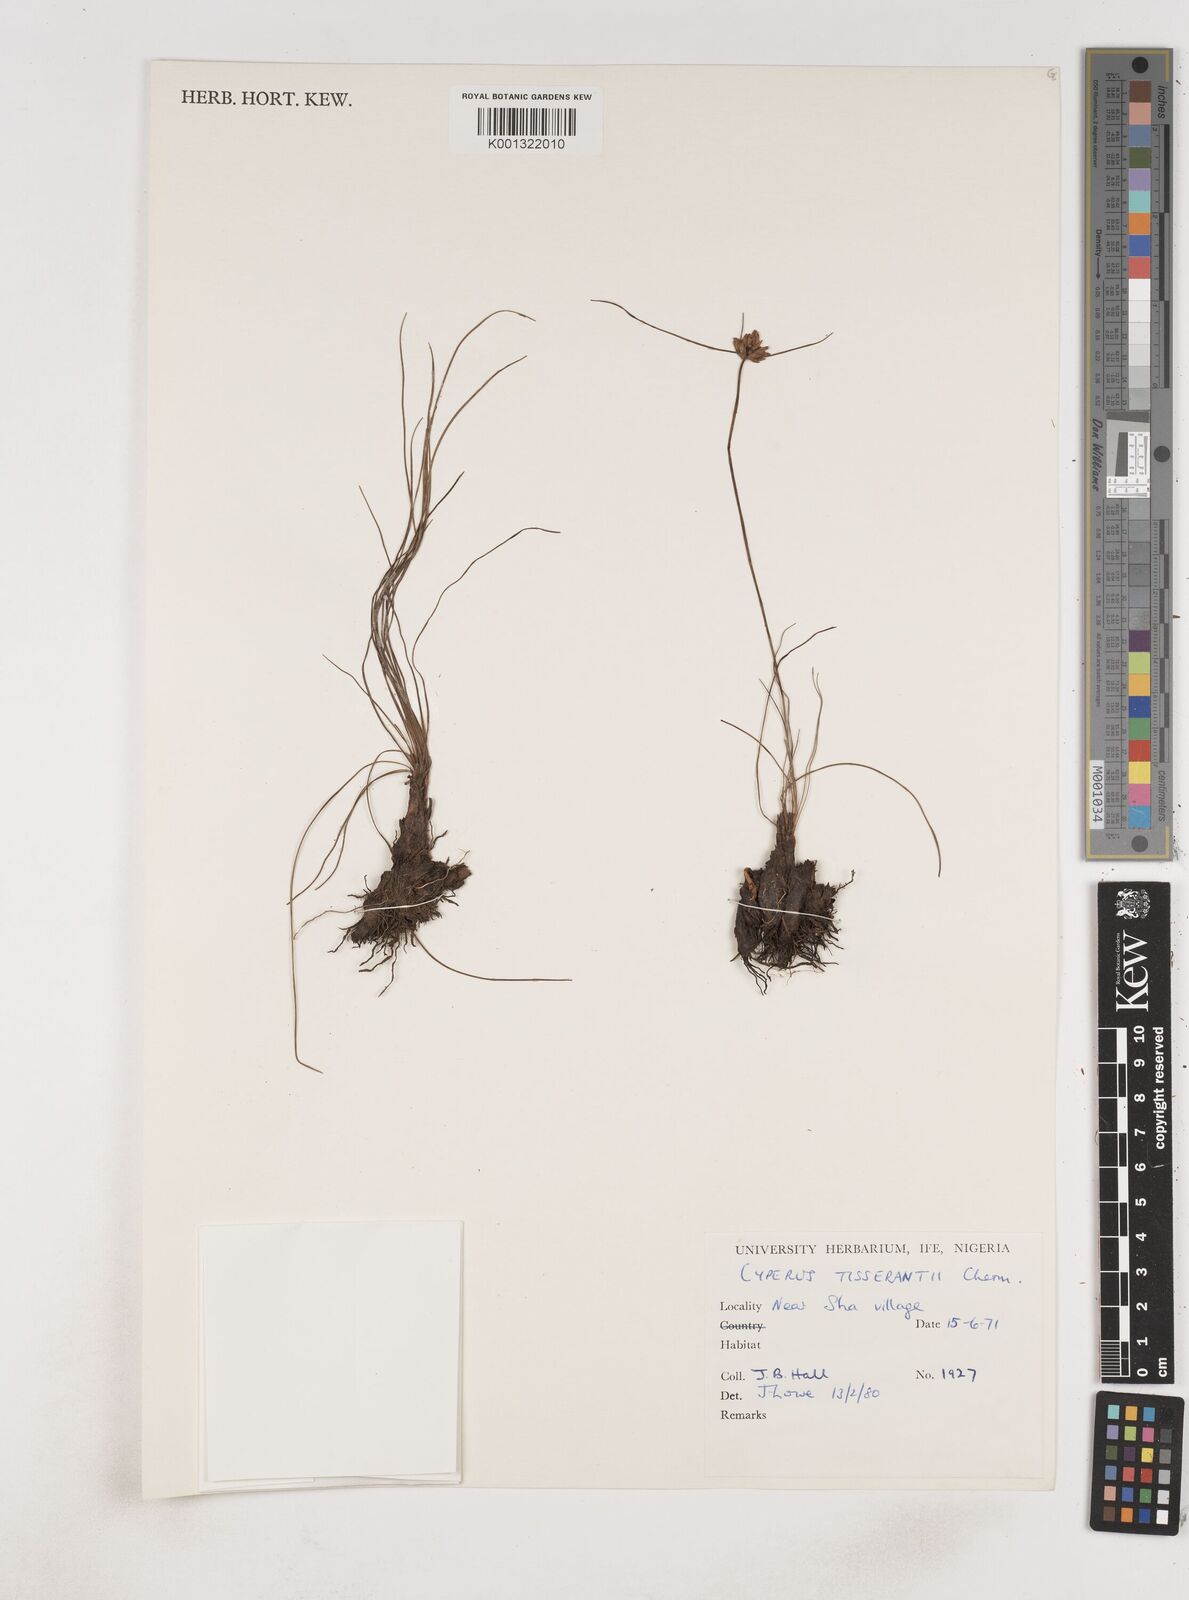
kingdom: Plantae
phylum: Tracheophyta
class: Liliopsida
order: Poales
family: Cyperaceae
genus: Cyperus
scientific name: Cyperus niveus
